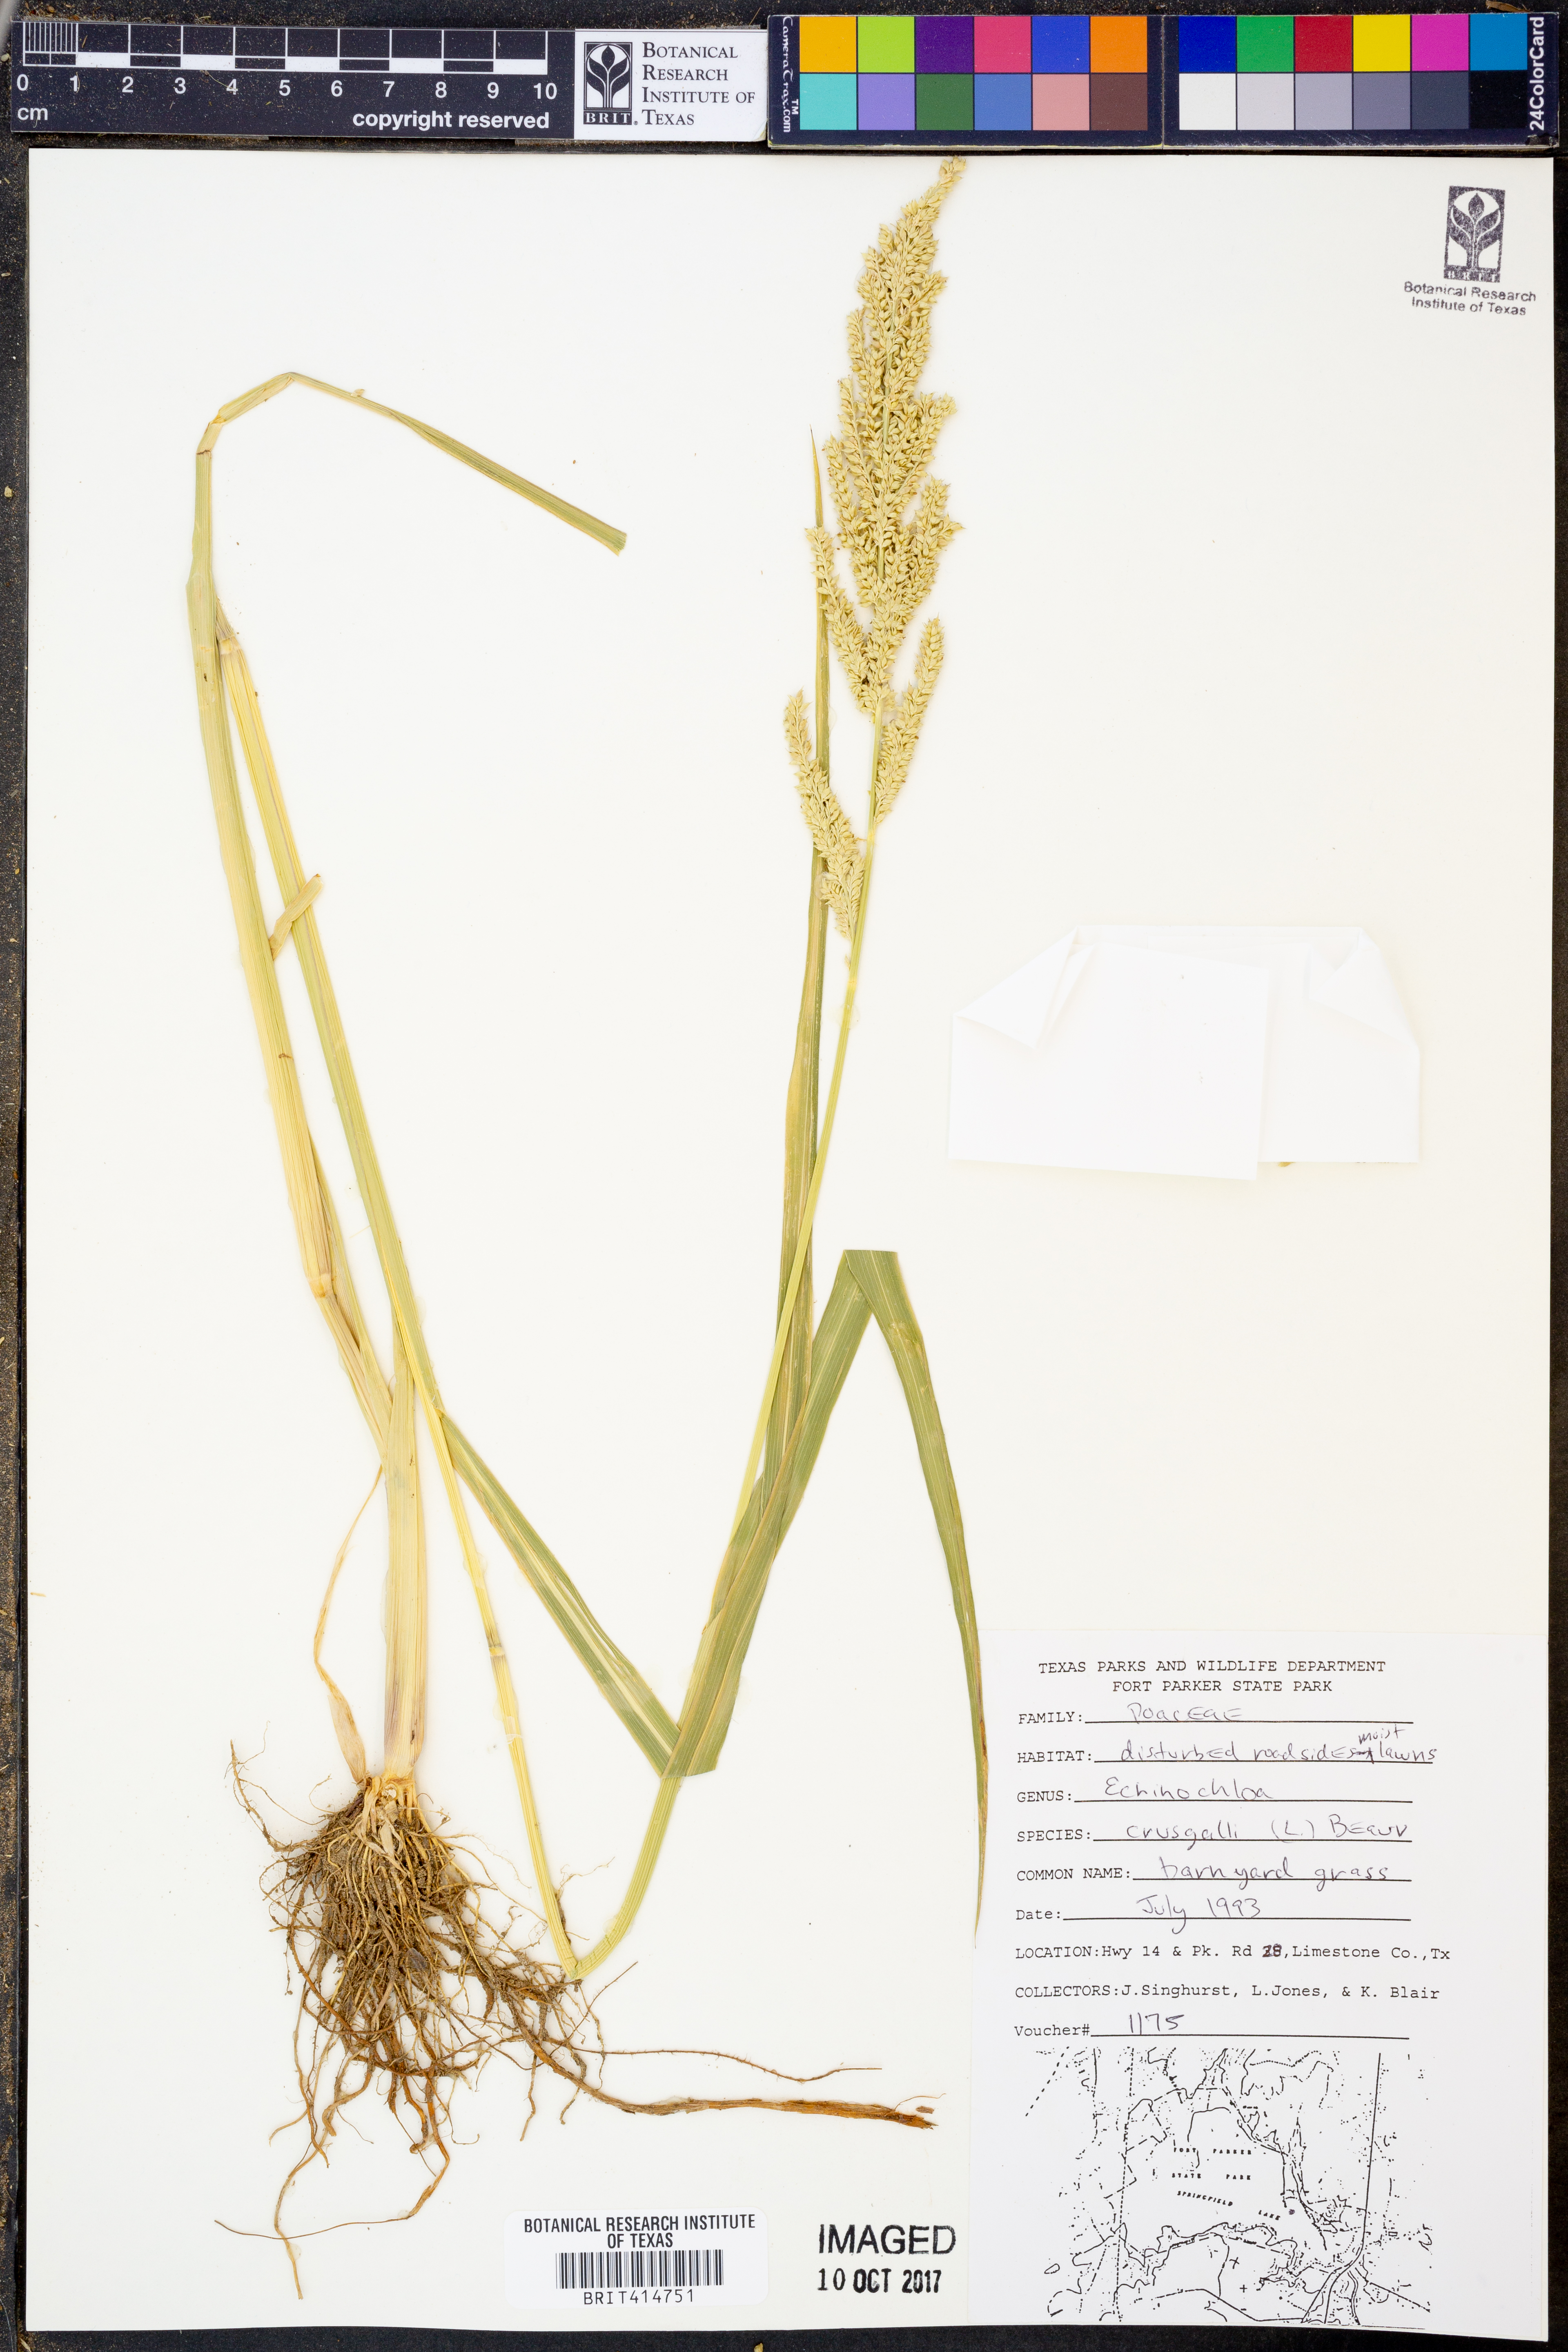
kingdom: Plantae
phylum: Tracheophyta
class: Liliopsida
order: Poales
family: Poaceae
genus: Echinochloa
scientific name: Echinochloa
